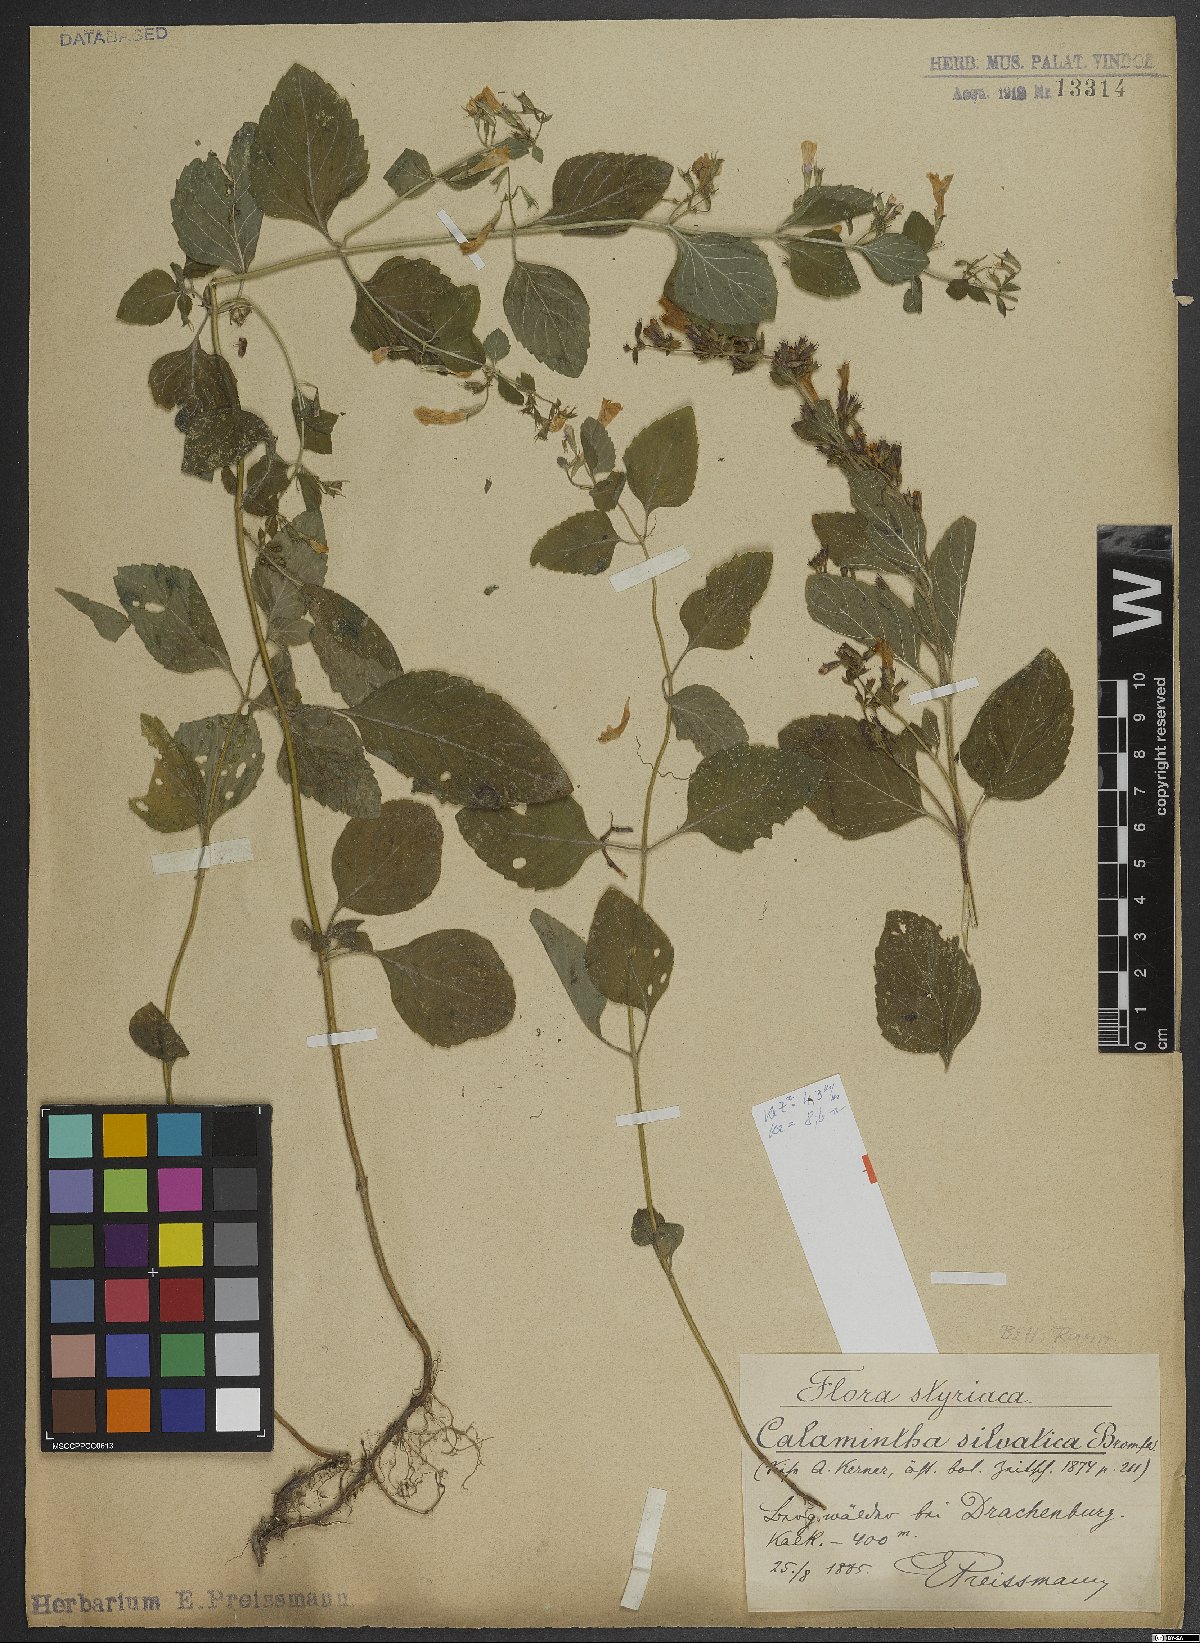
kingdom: Plantae
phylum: Tracheophyta
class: Magnoliopsida
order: Lamiales
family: Lamiaceae
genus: Clinopodium
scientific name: Clinopodium menthifolium
